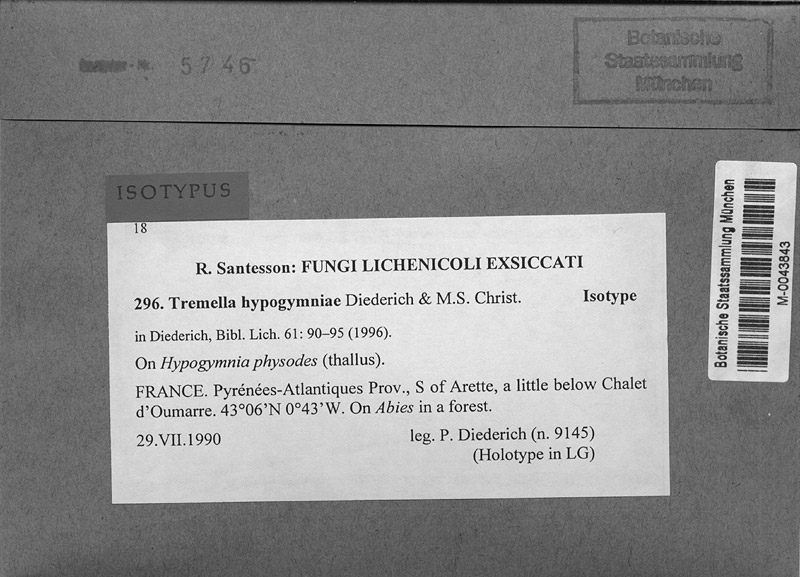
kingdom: Fungi
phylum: Basidiomycota
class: Tremellomycetes
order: Tremellales
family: Tremellaceae
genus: Tremella
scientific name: Tremella hypogymniae
